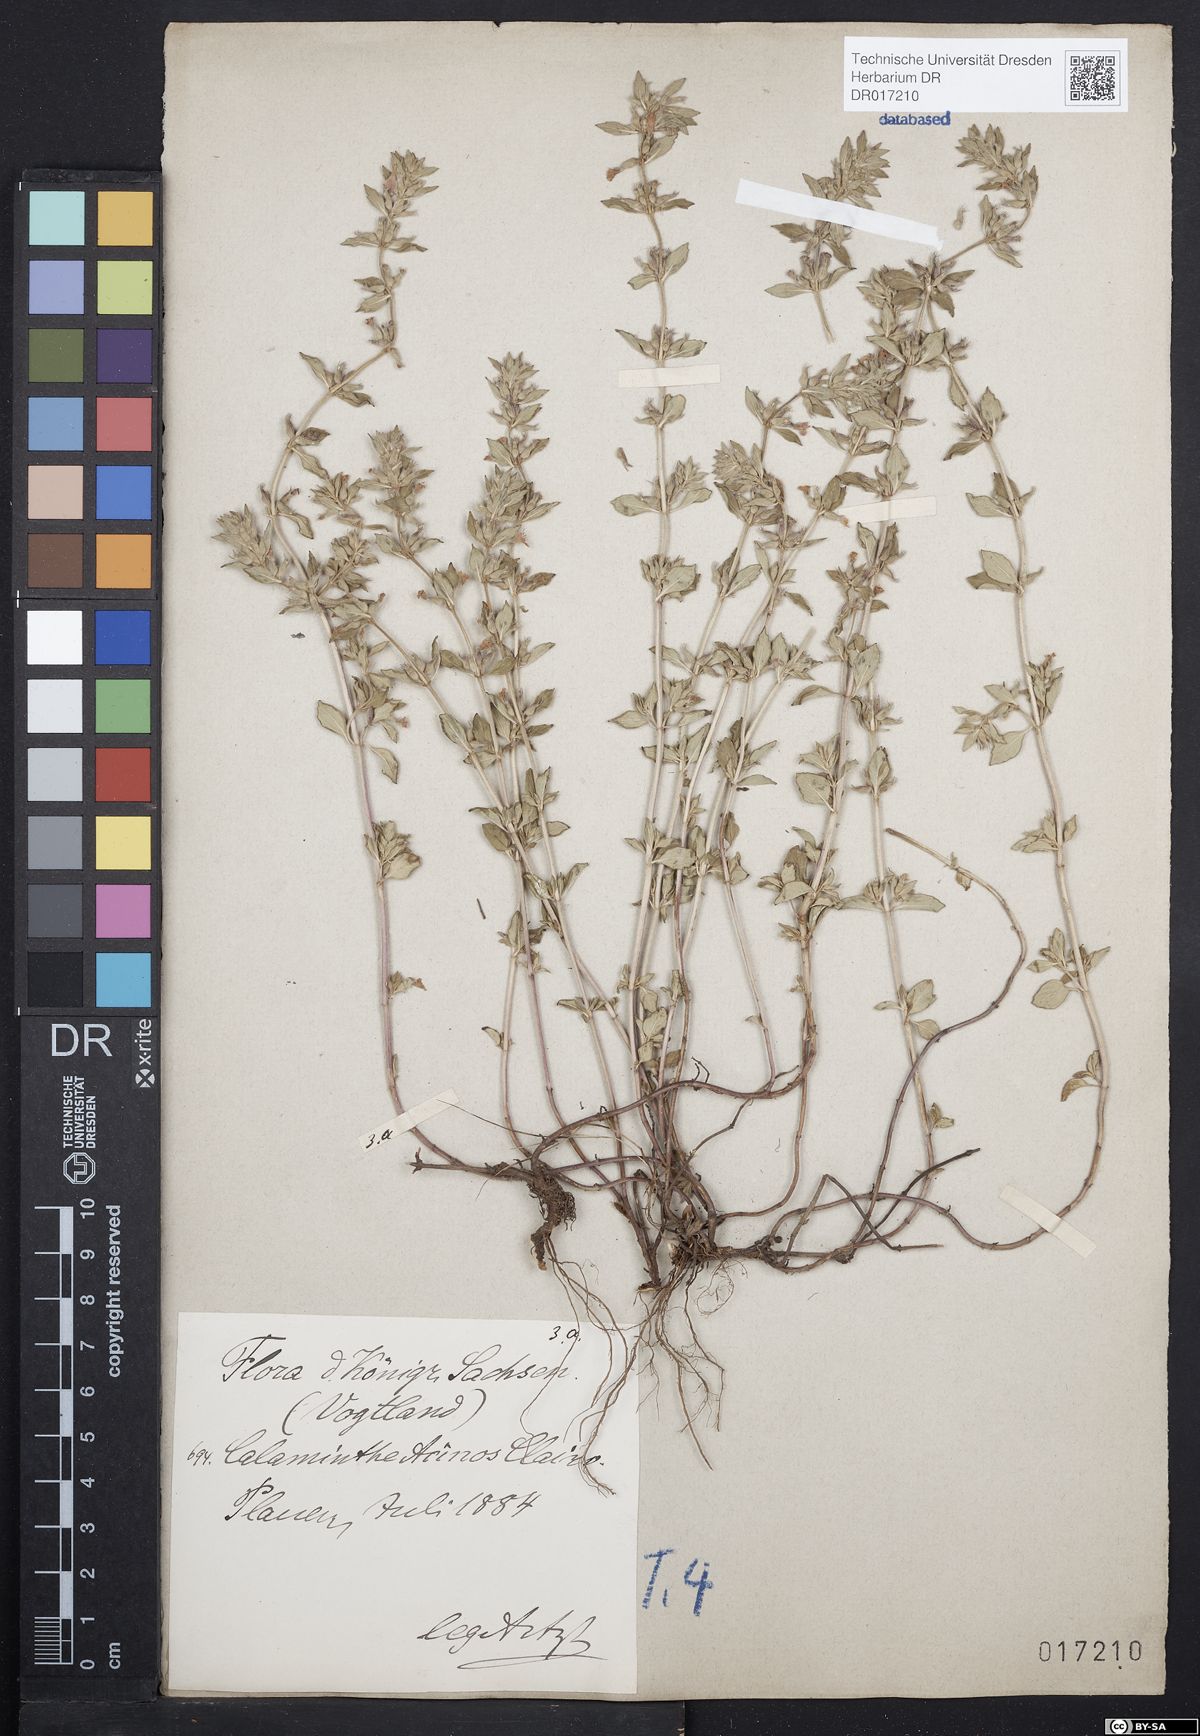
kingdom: Plantae
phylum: Tracheophyta
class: Magnoliopsida
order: Lamiales
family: Lamiaceae
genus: Clinopodium
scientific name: Clinopodium acinos
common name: Basil thyme
